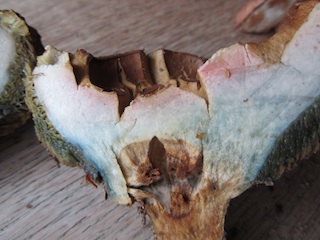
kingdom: Fungi
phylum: Basidiomycota
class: Agaricomycetes
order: Boletales
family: Boletaceae
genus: Hortiboletus
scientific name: Hortiboletus bubalinus
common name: aurora-rørhat
